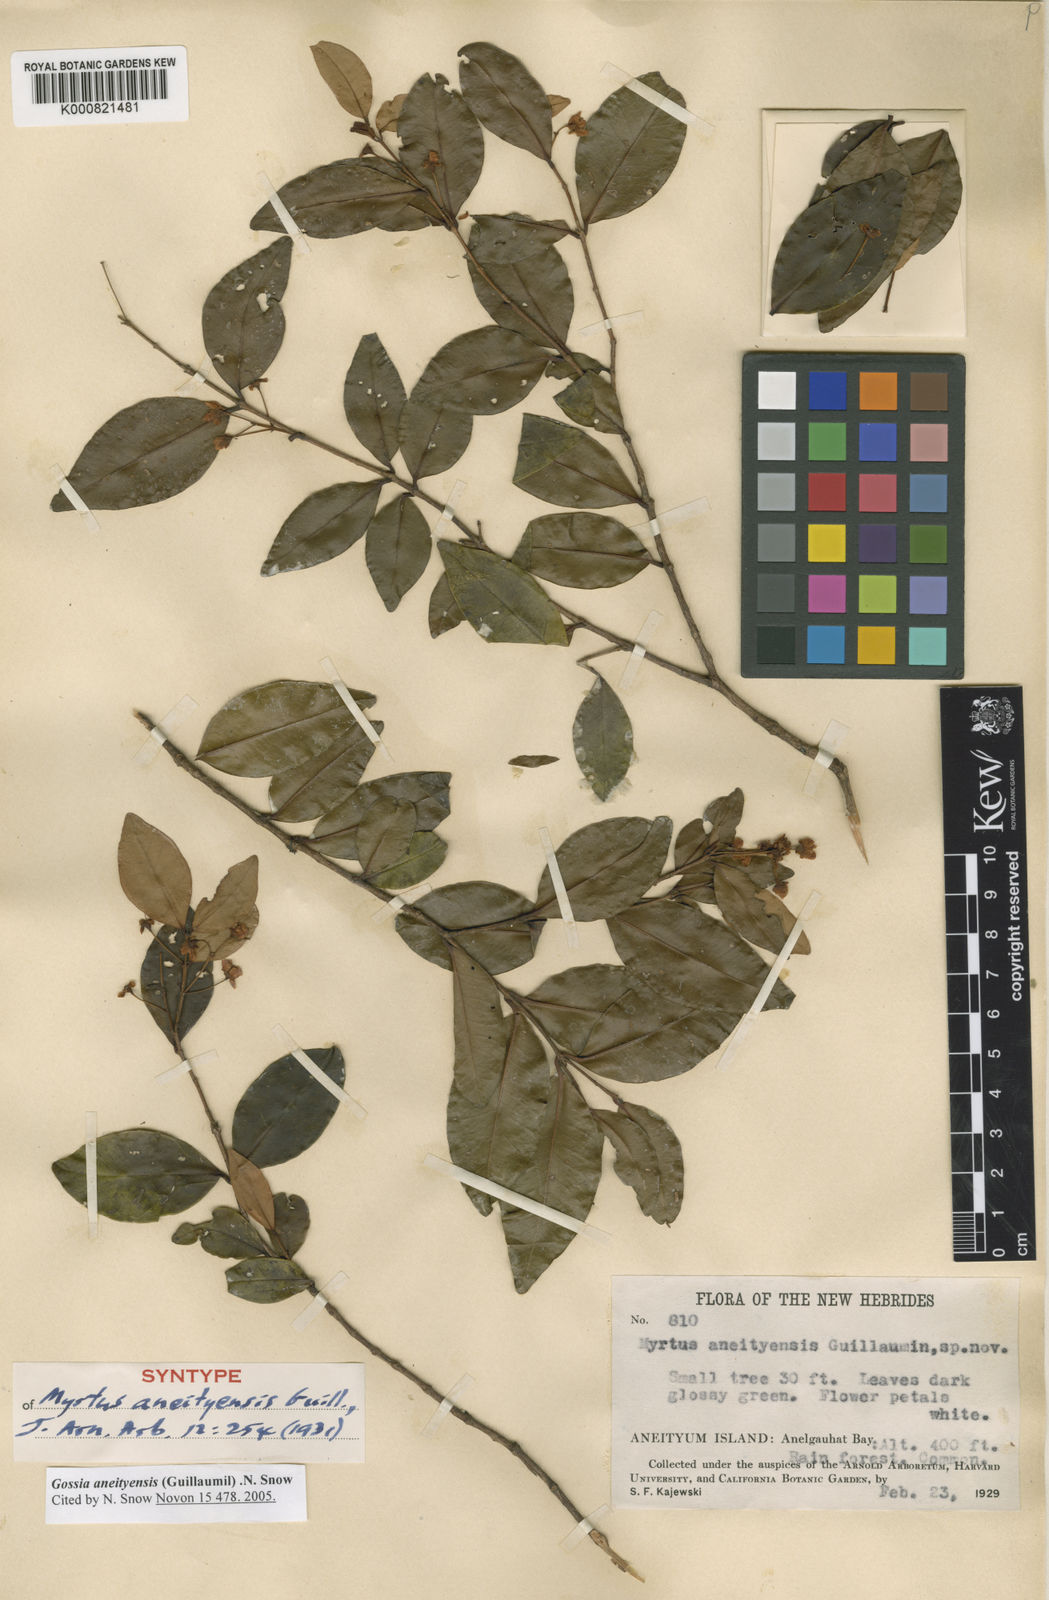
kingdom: Plantae
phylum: Tracheophyta
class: Magnoliopsida
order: Myrtales
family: Myrtaceae
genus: Gossia
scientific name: Gossia vieillardii
